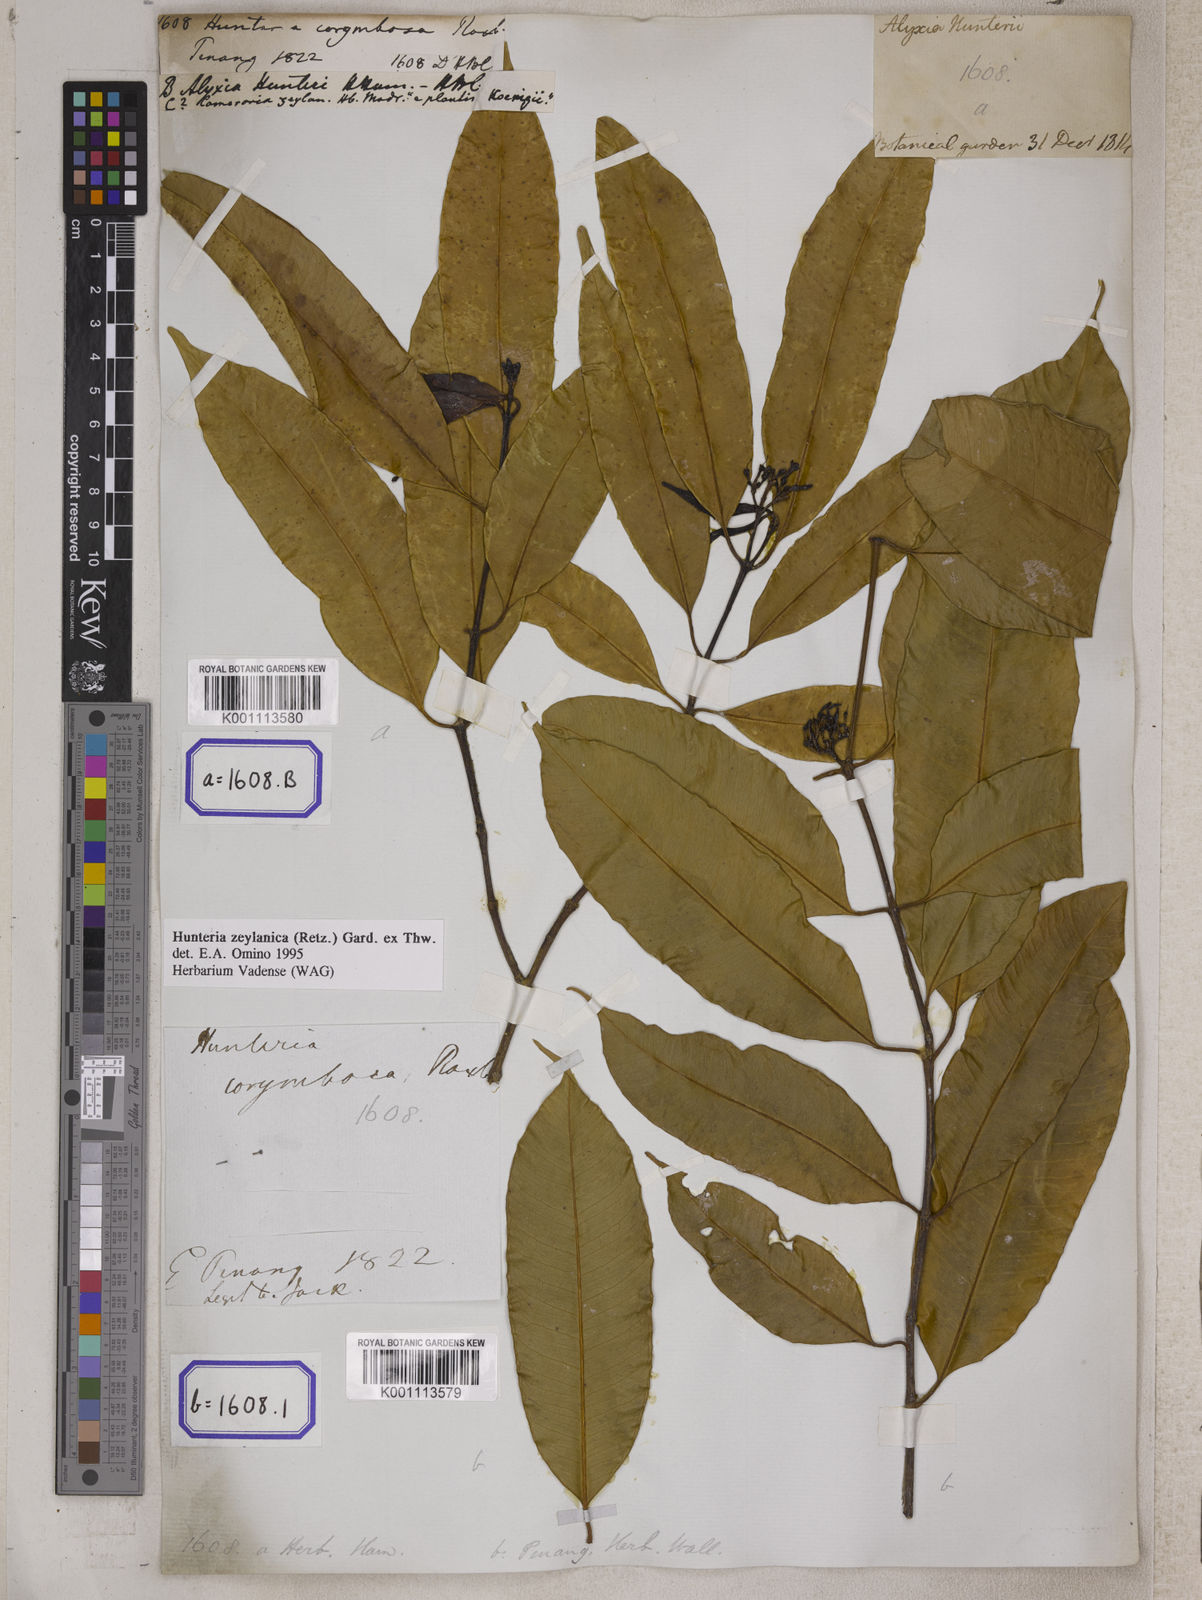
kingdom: Plantae
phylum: Tracheophyta
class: Magnoliopsida
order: Gentianales
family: Apocynaceae
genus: Hunteria
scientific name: Hunteria zeylanica
